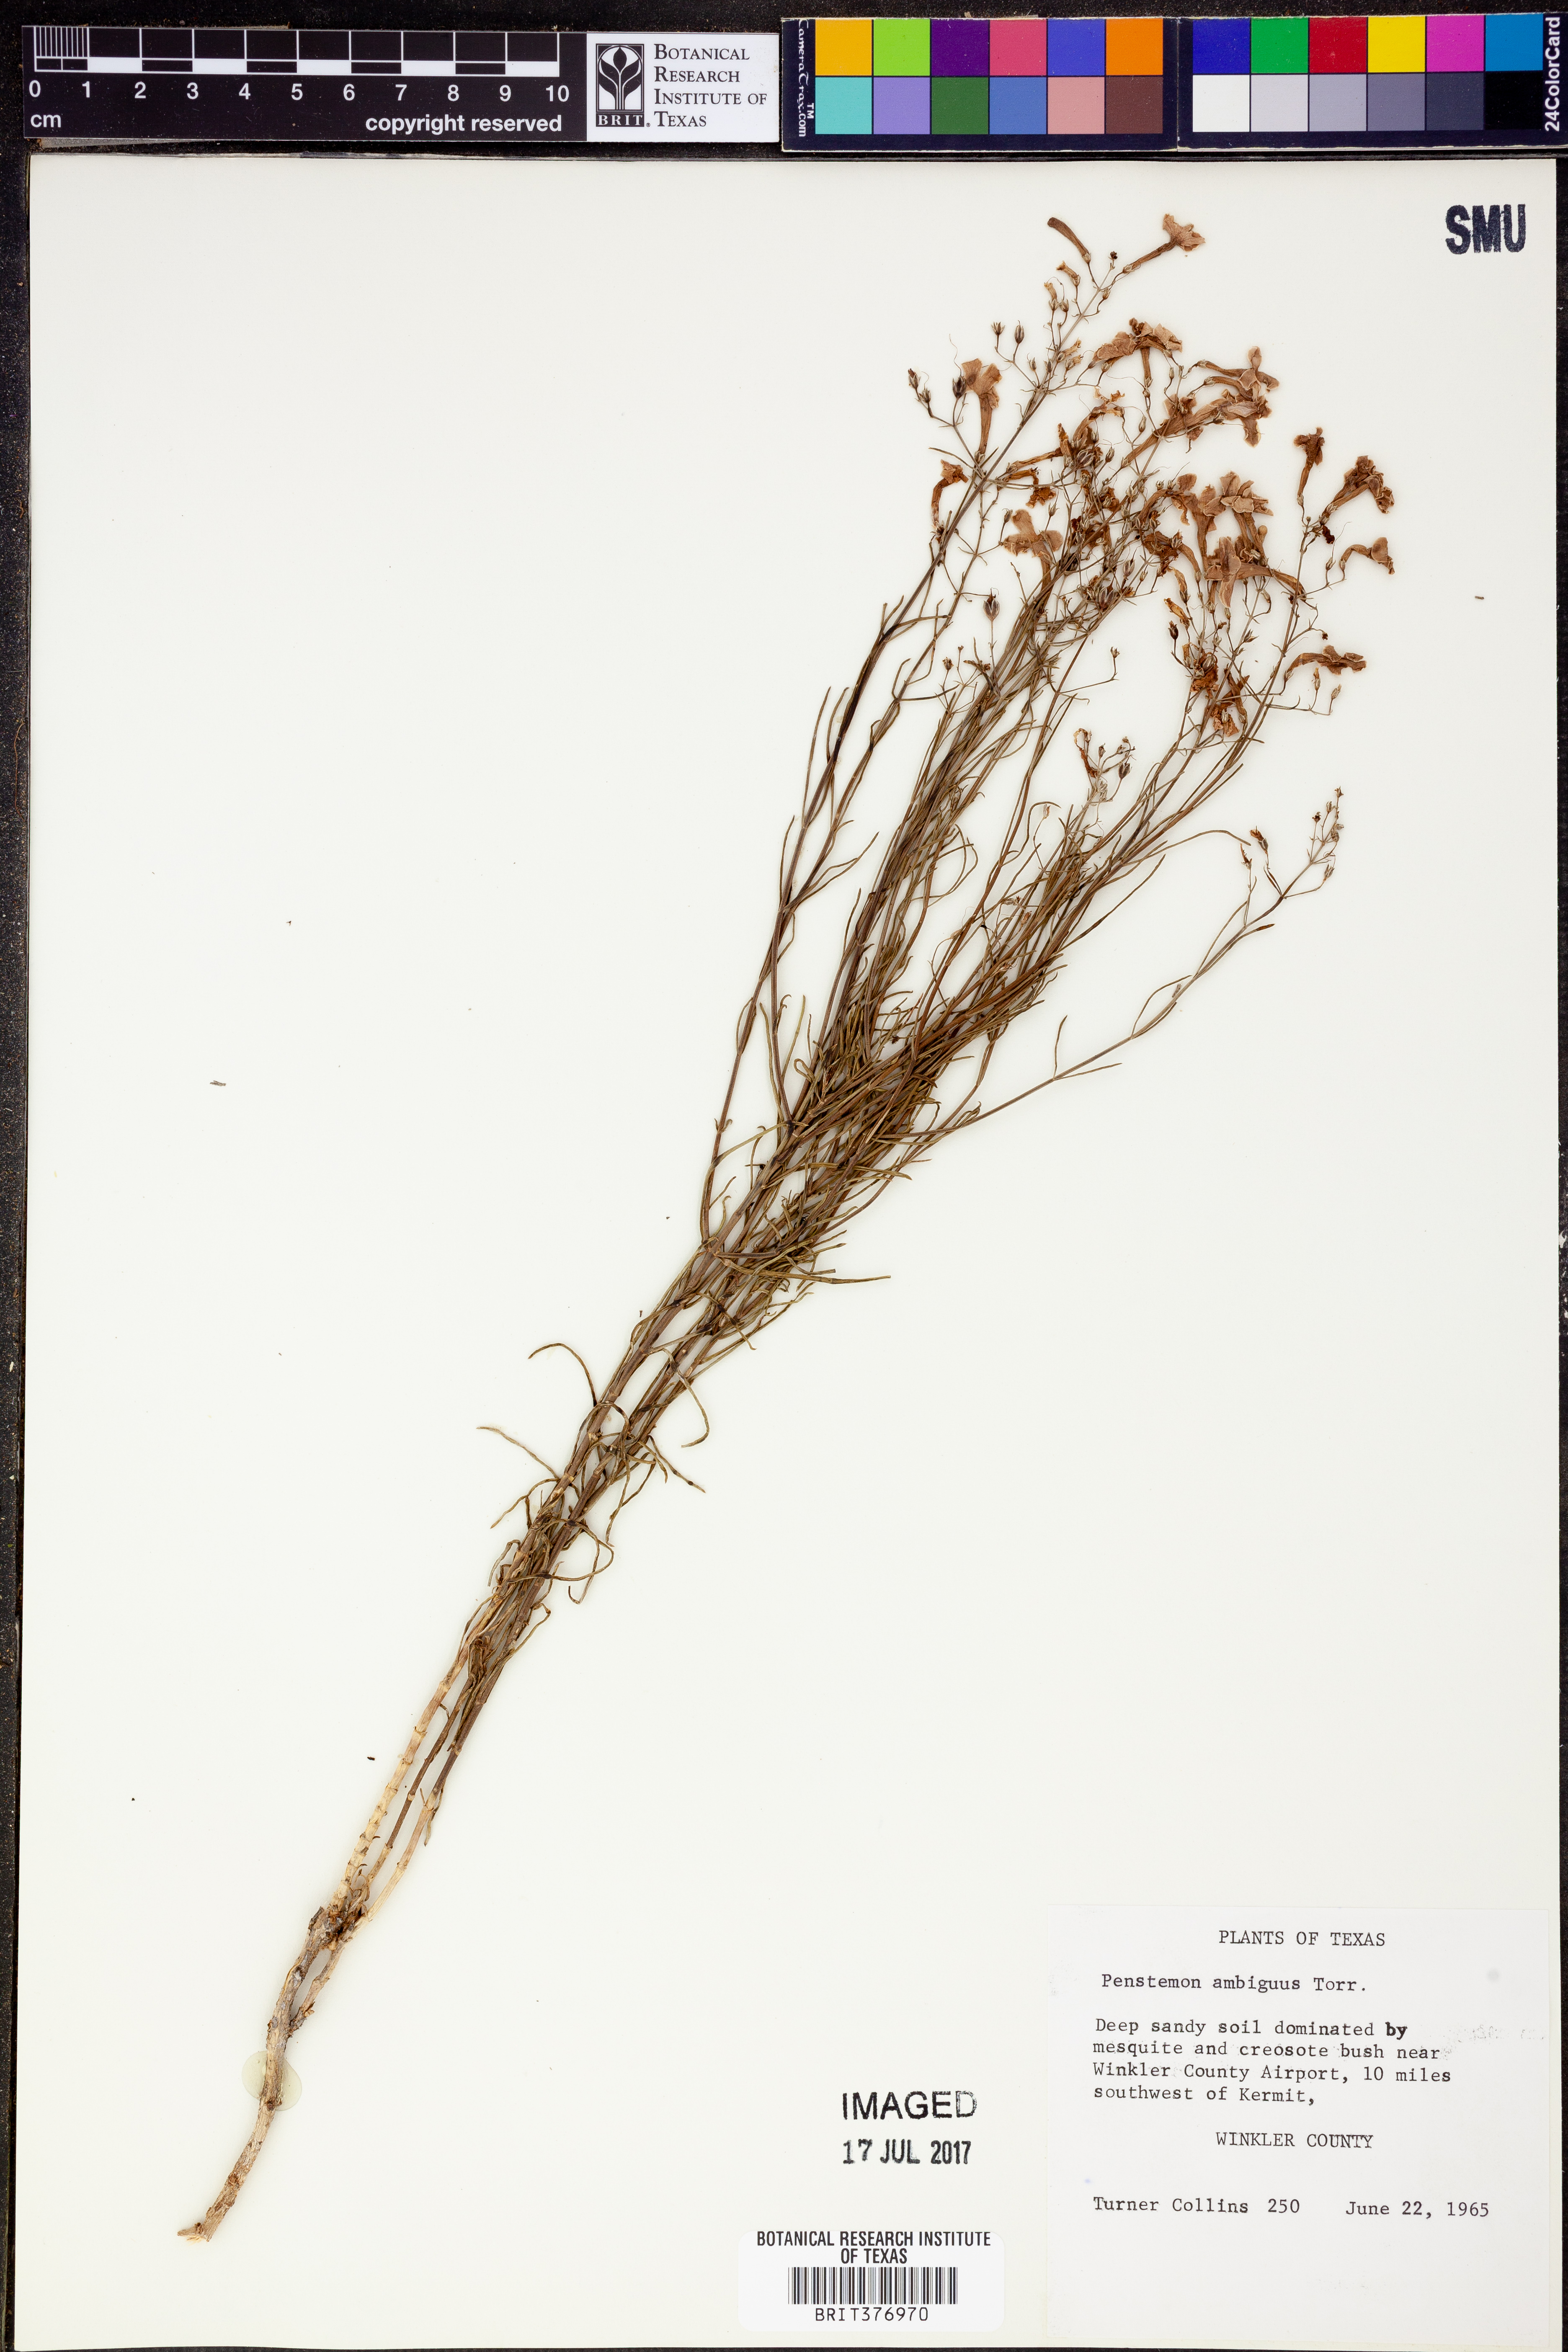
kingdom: Plantae
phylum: Tracheophyta
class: Magnoliopsida
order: Lamiales
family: Plantaginaceae
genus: Penstemon
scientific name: Penstemon ambiguus
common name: Bush penstemon
